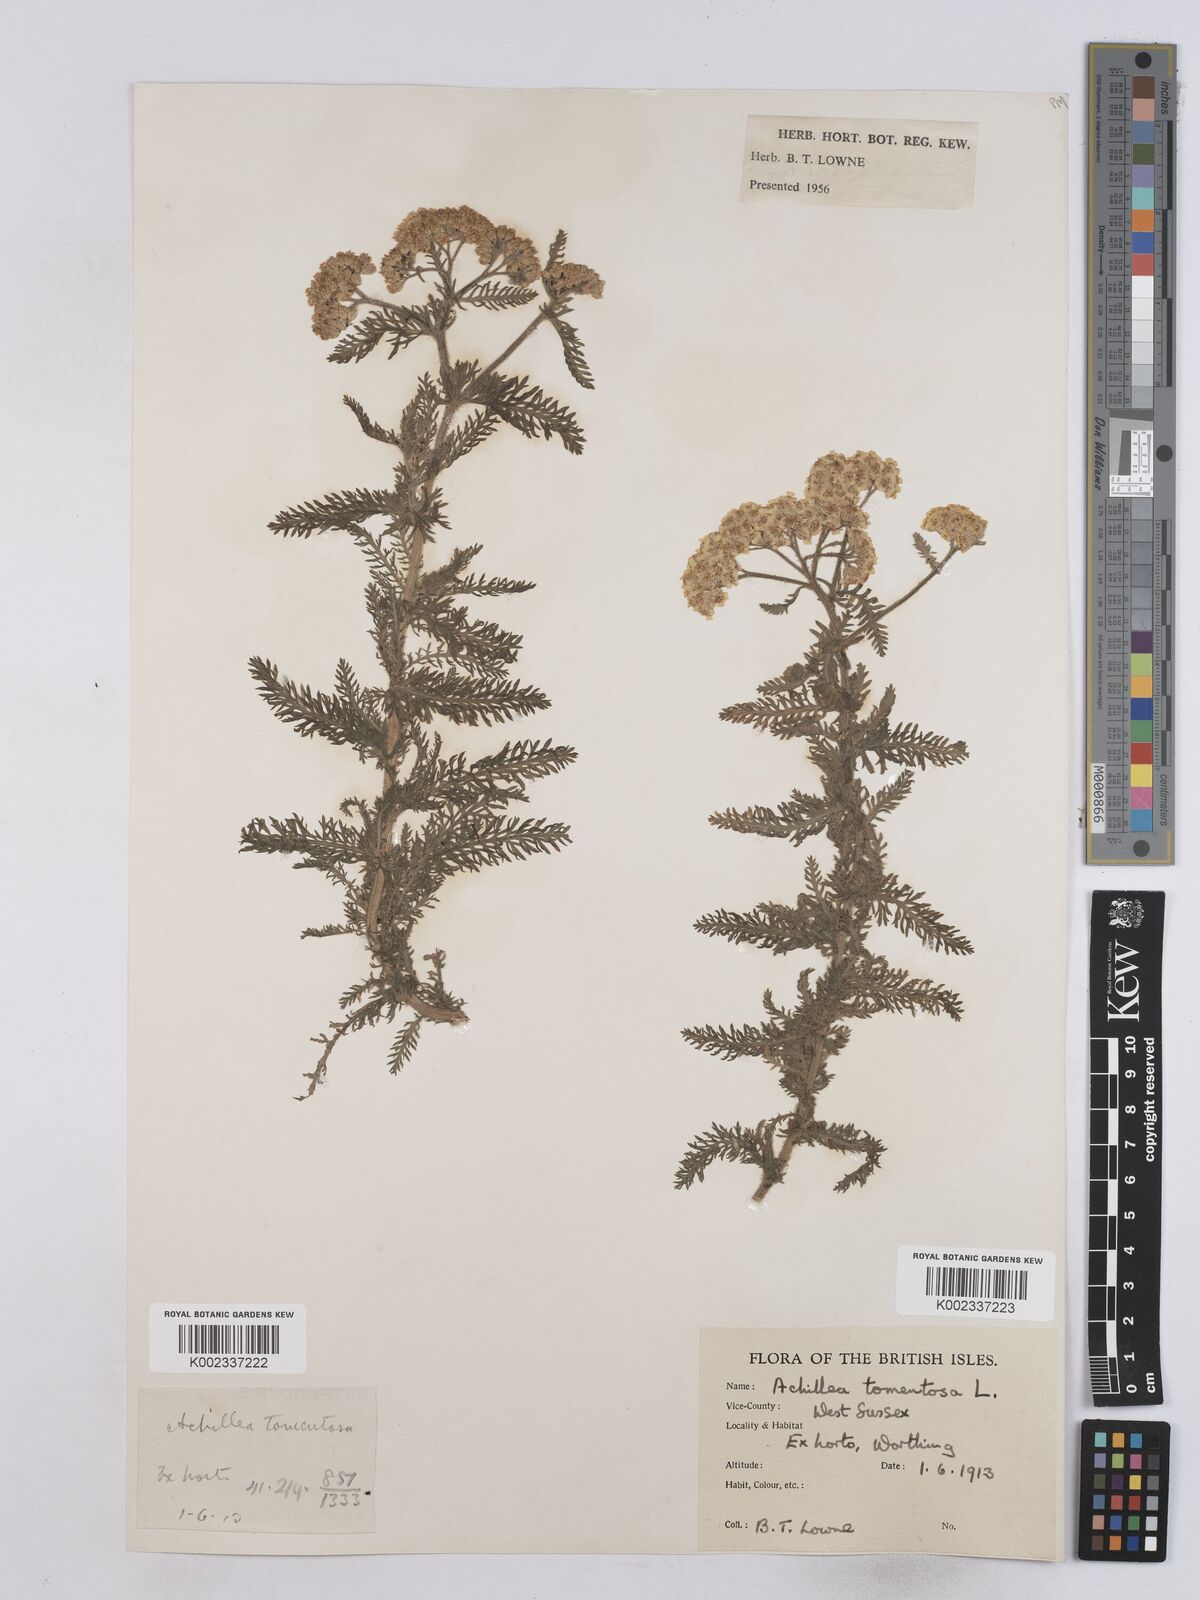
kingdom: Plantae
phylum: Tracheophyta
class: Magnoliopsida
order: Asterales
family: Asteraceae
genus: Achillea
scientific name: Achillea tomentosa
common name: Yellow milfoil
